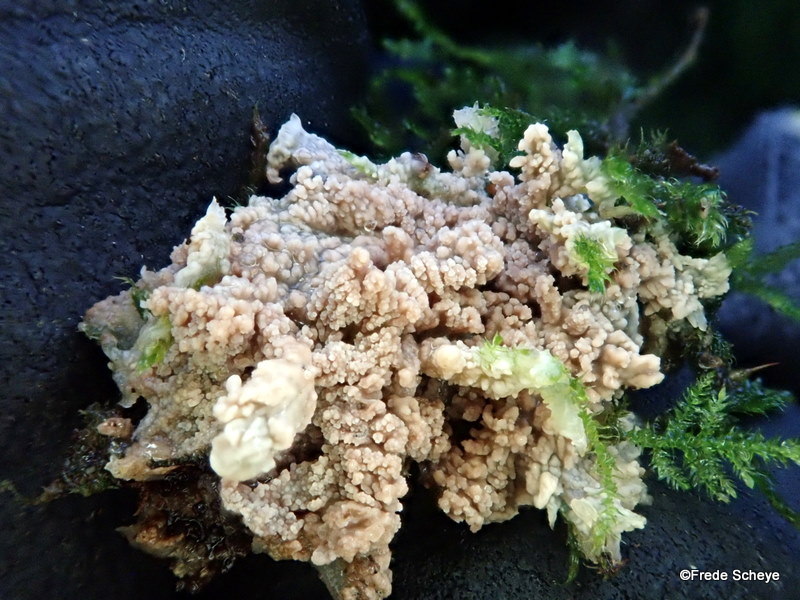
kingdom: Fungi
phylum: Basidiomycota
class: Agaricomycetes
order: Polyporales
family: Meruliaceae
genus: Phlebia
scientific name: Phlebia radiata
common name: stråle-åresvamp
